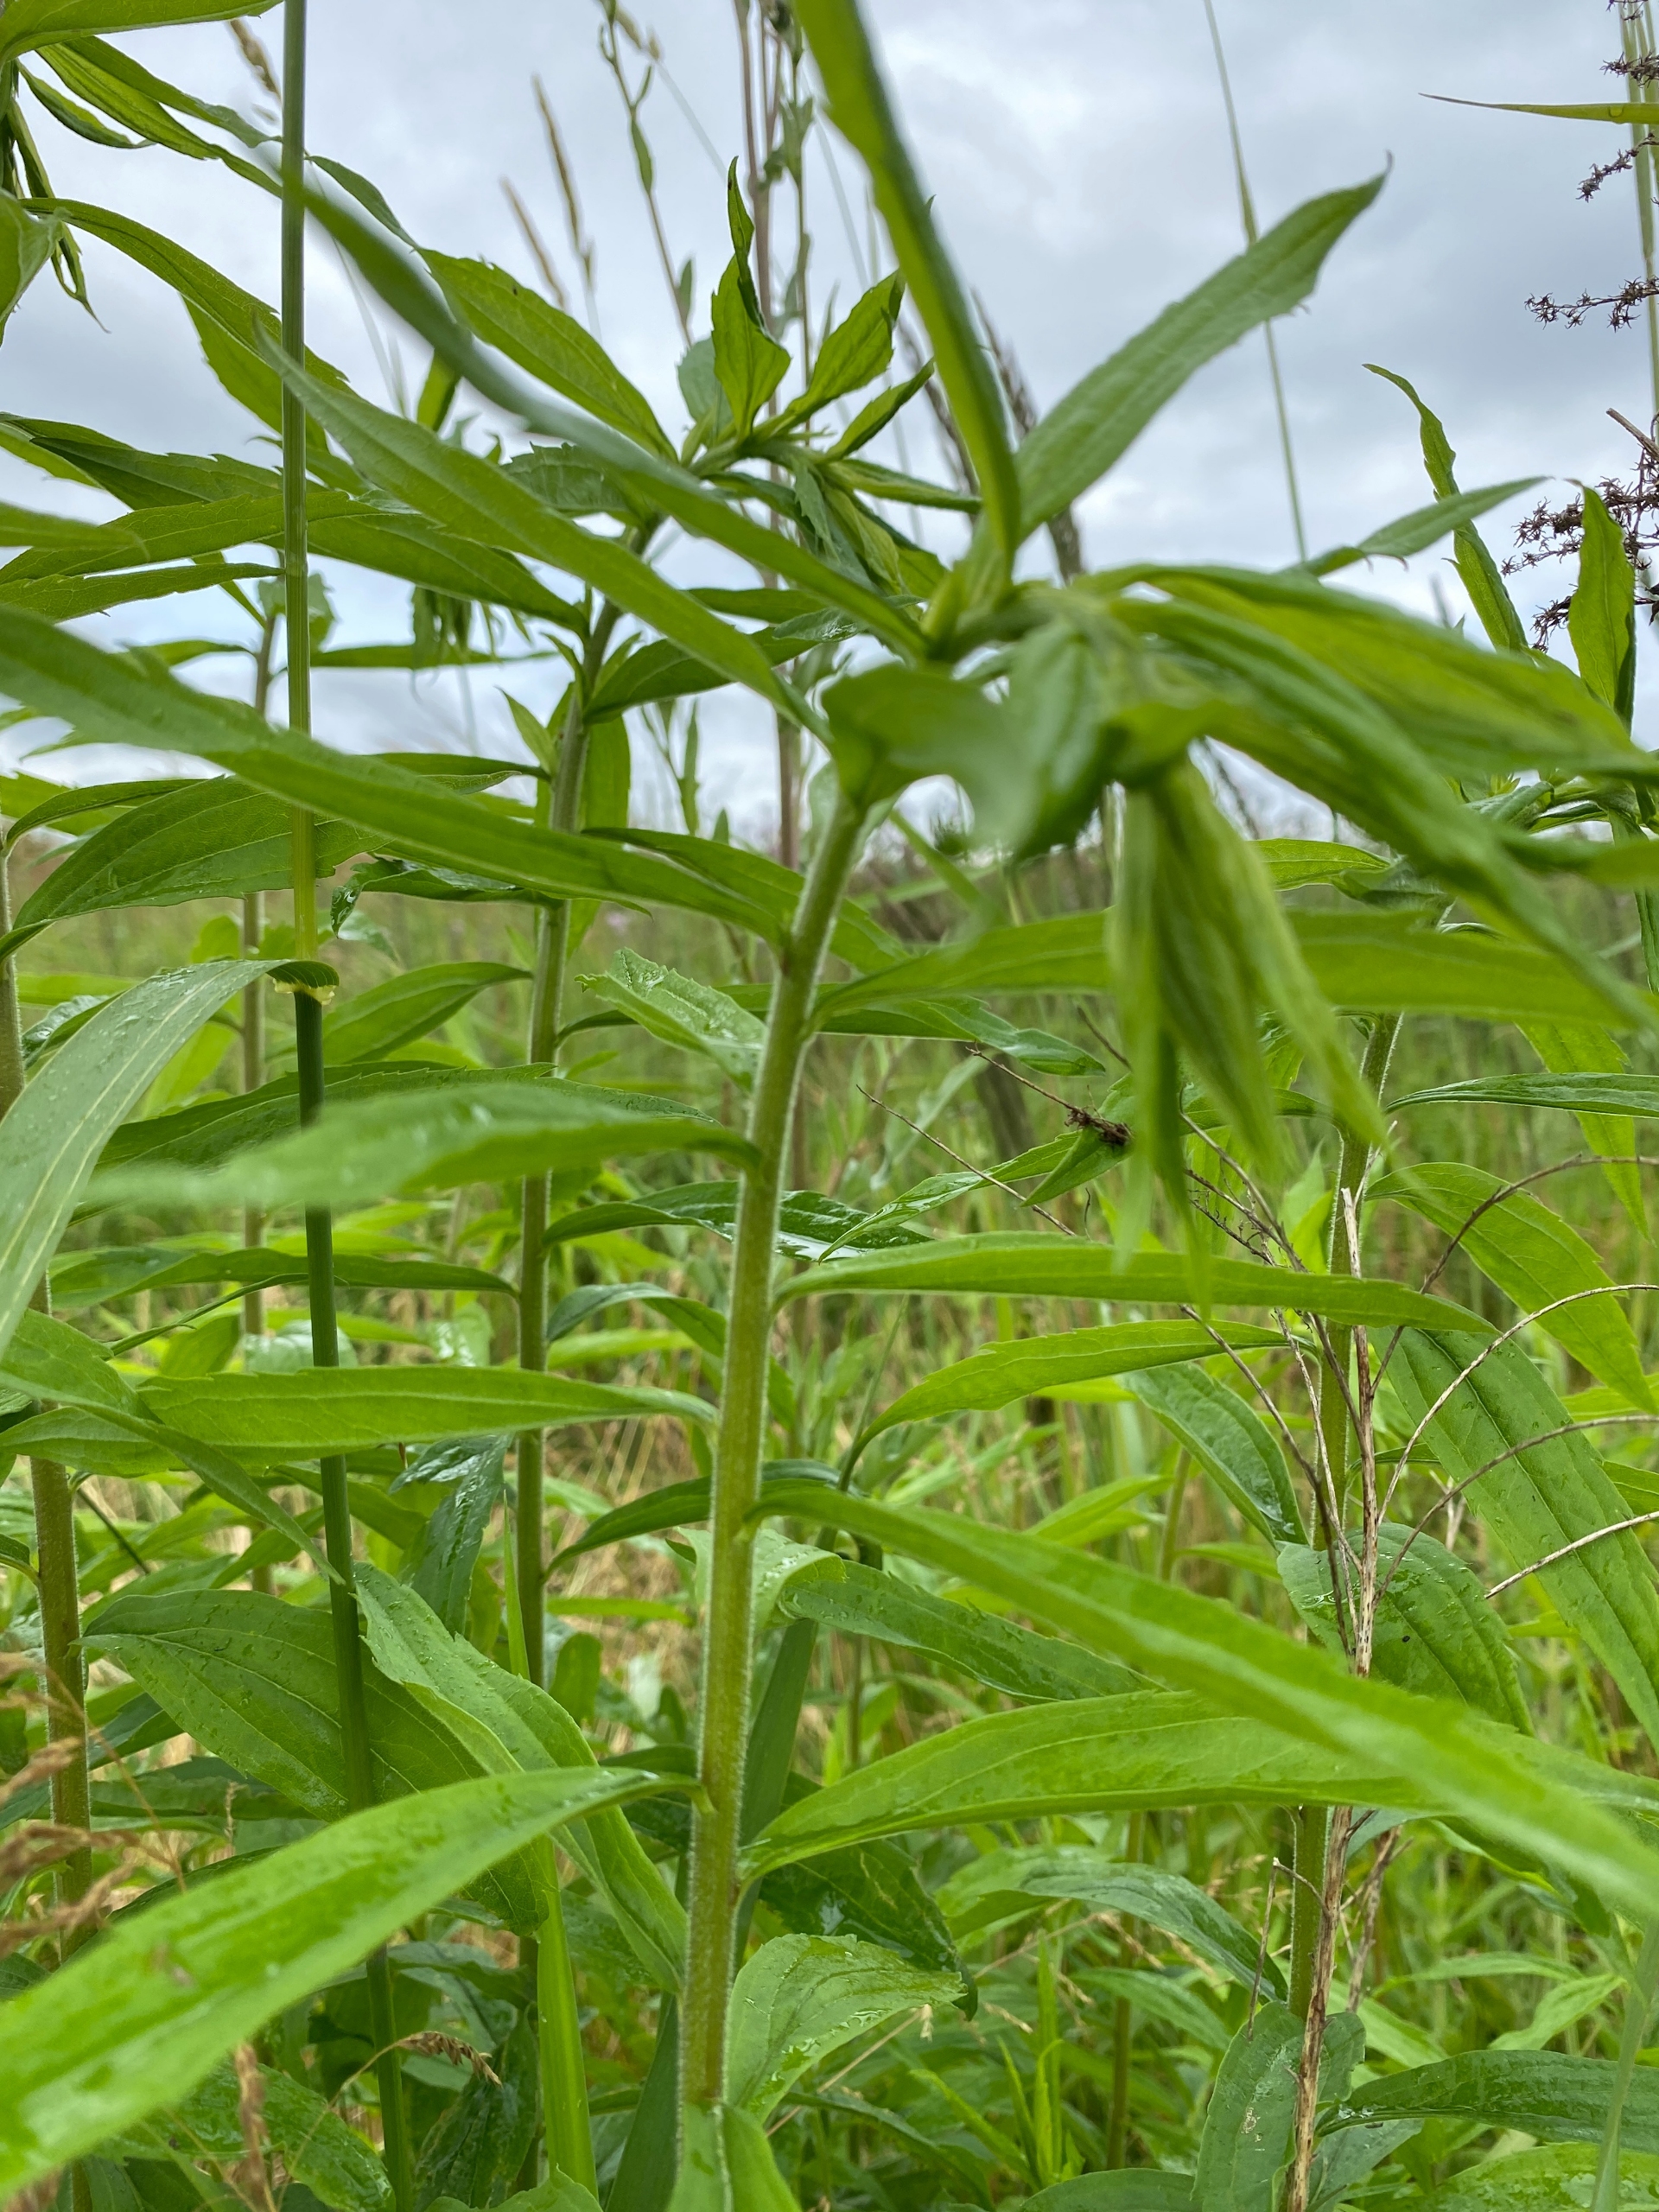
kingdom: Plantae
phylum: Tracheophyta
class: Magnoliopsida
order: Asterales
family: Asteraceae
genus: Solidago
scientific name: Solidago canadensis
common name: Kanadisk gyldenris
